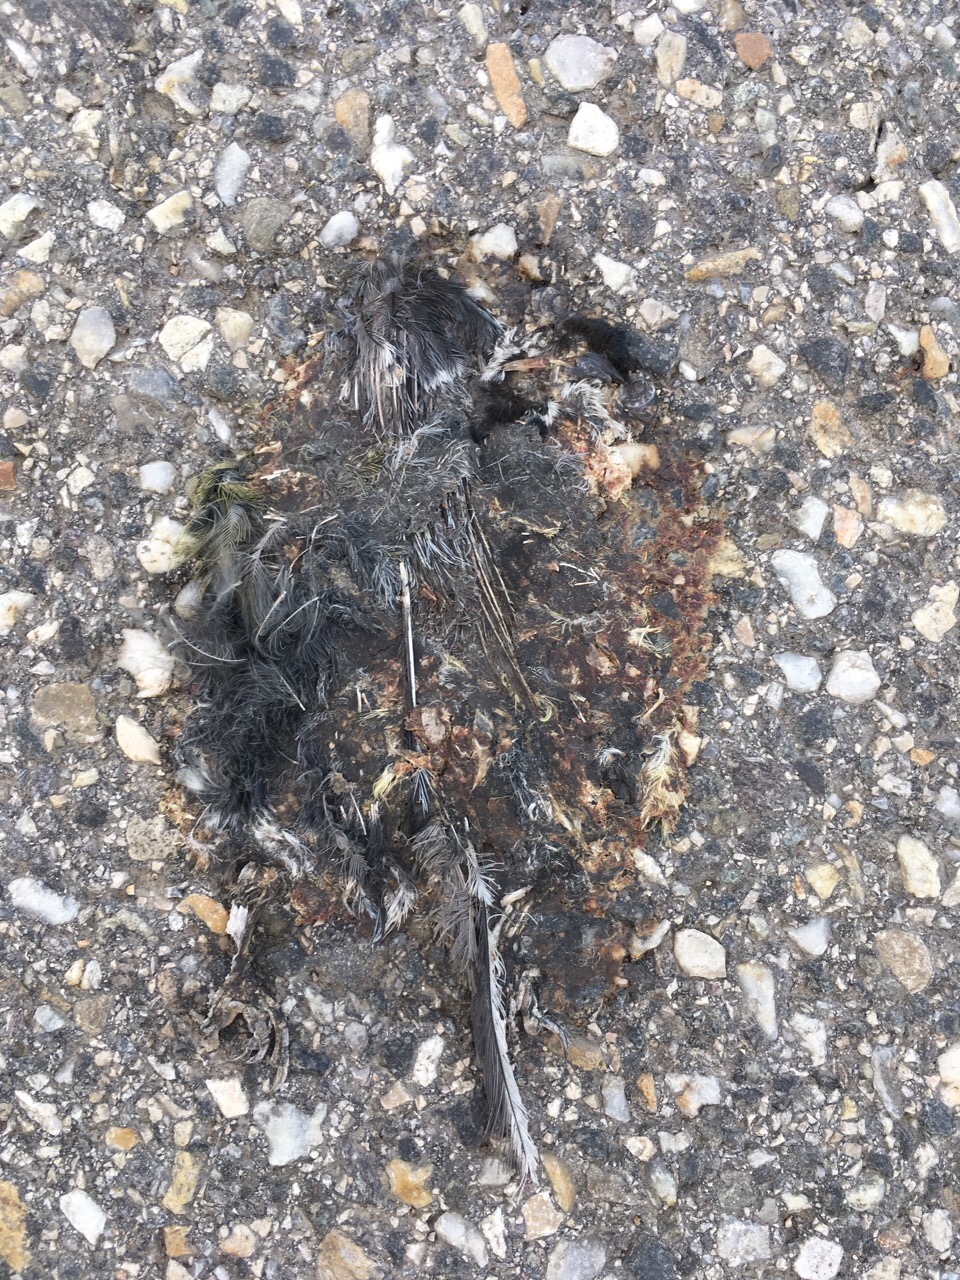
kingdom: Animalia
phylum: Chordata
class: Aves
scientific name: Aves
